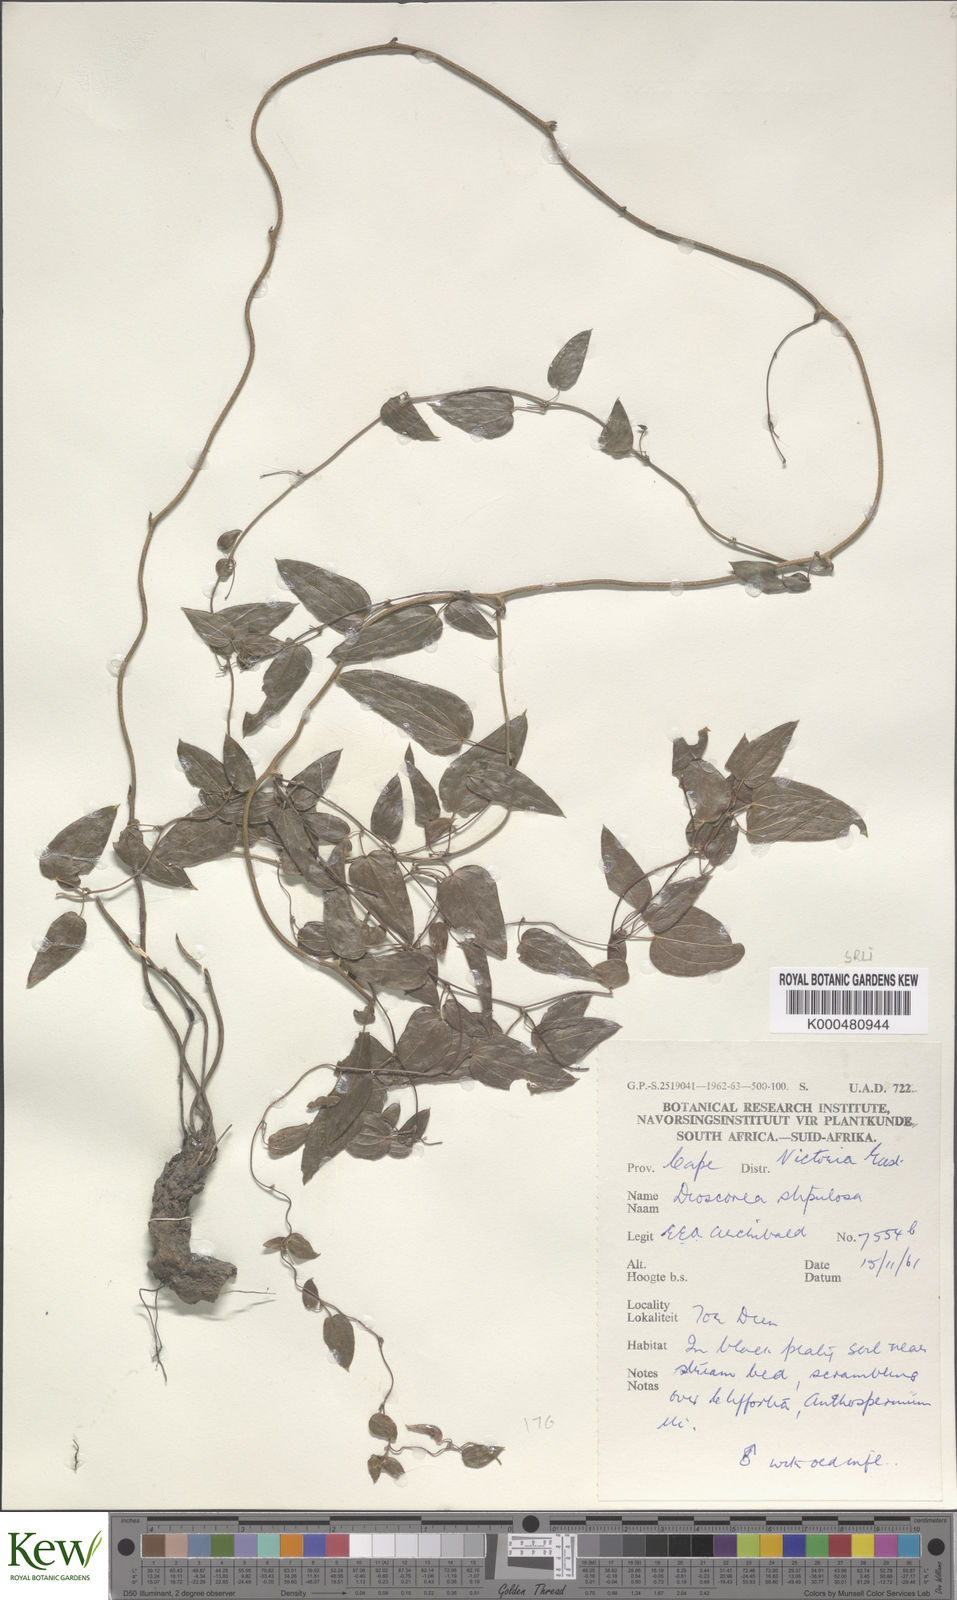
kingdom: Plantae
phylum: Tracheophyta
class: Liliopsida
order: Dioscoreales
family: Dioscoreaceae
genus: Dioscorea
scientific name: Dioscorea stipulosa
